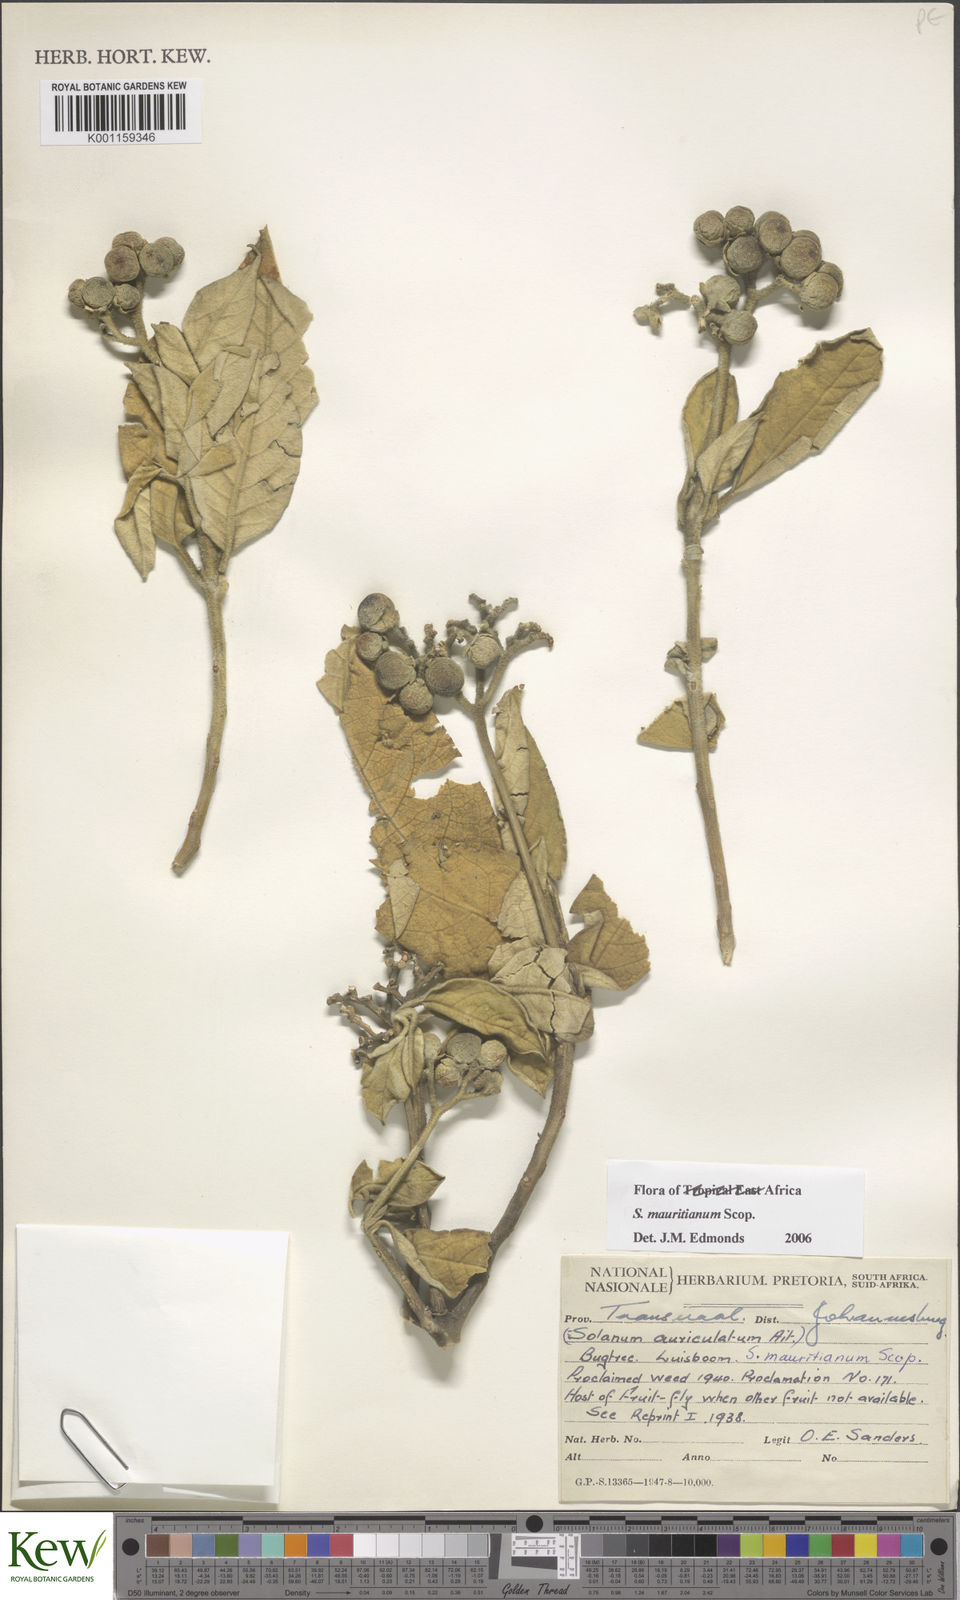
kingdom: Plantae
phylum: Tracheophyta
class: Magnoliopsida
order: Solanales
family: Solanaceae
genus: Solanum
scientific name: Solanum mauritianum
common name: Earleaf nightshade
